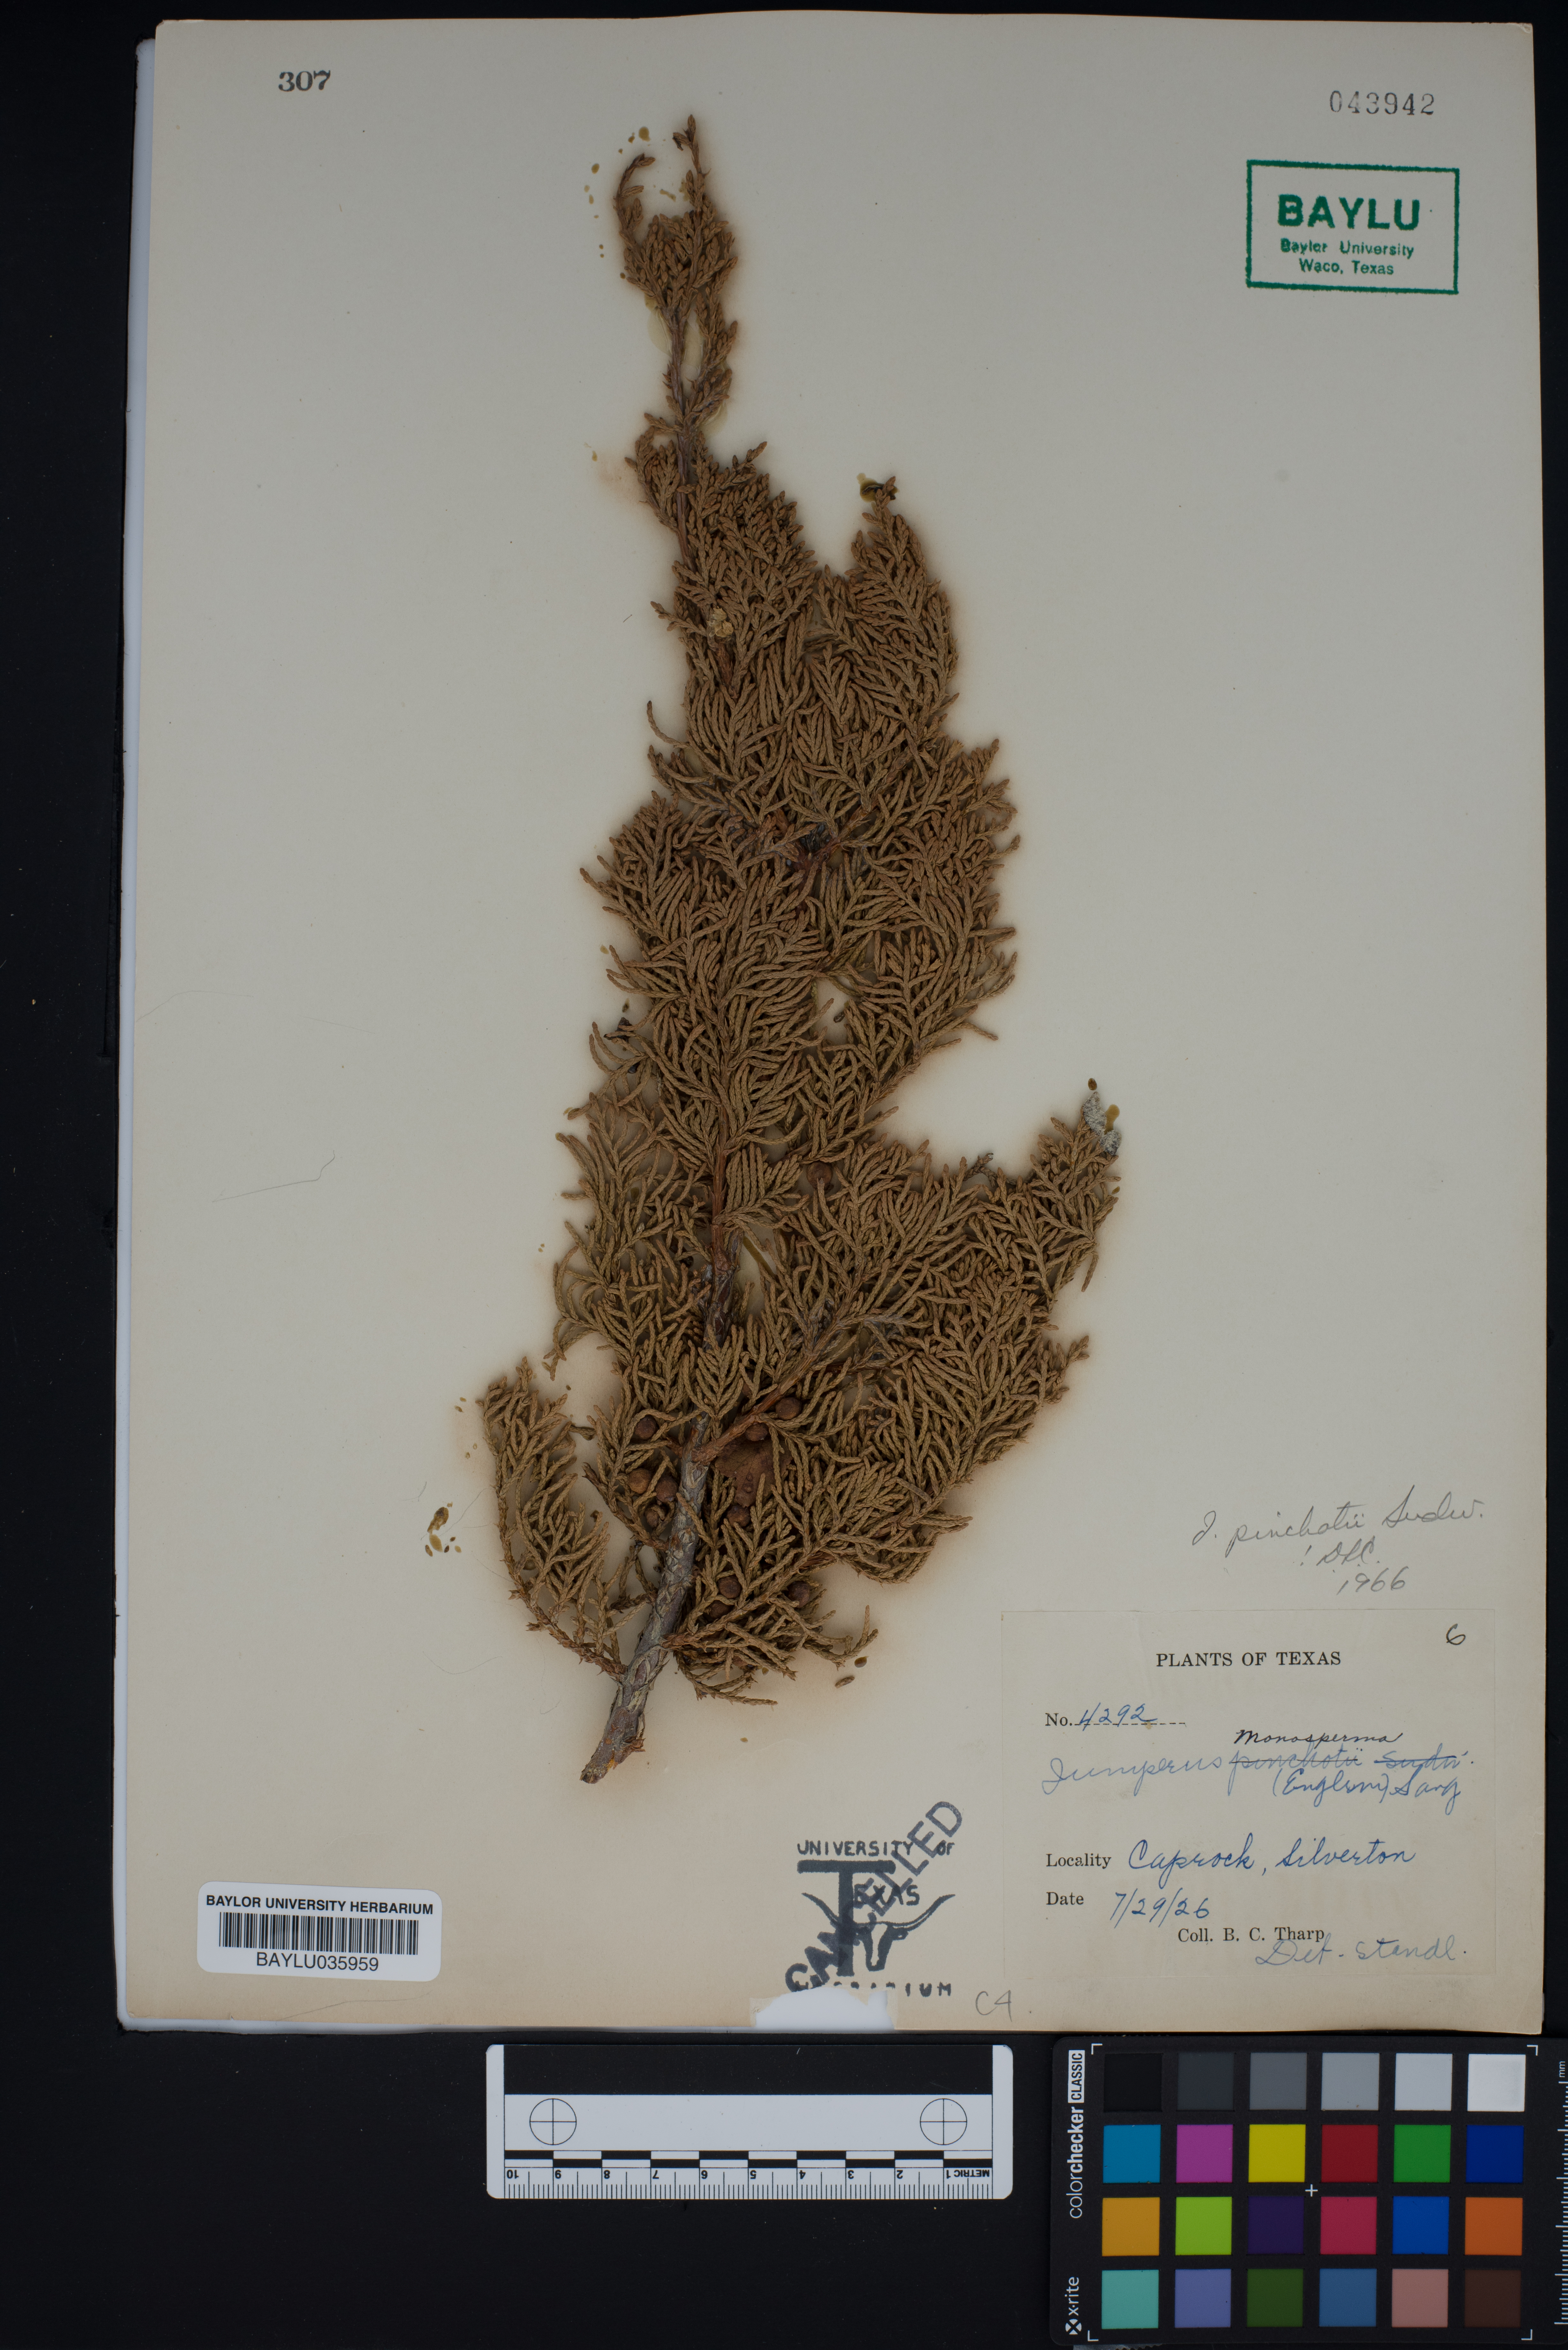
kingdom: Plantae
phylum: Tracheophyta
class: Pinopsida
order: Pinales
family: Cupressaceae
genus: Juniperus
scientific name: Juniperus pinchotii
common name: Pinchot juniper
